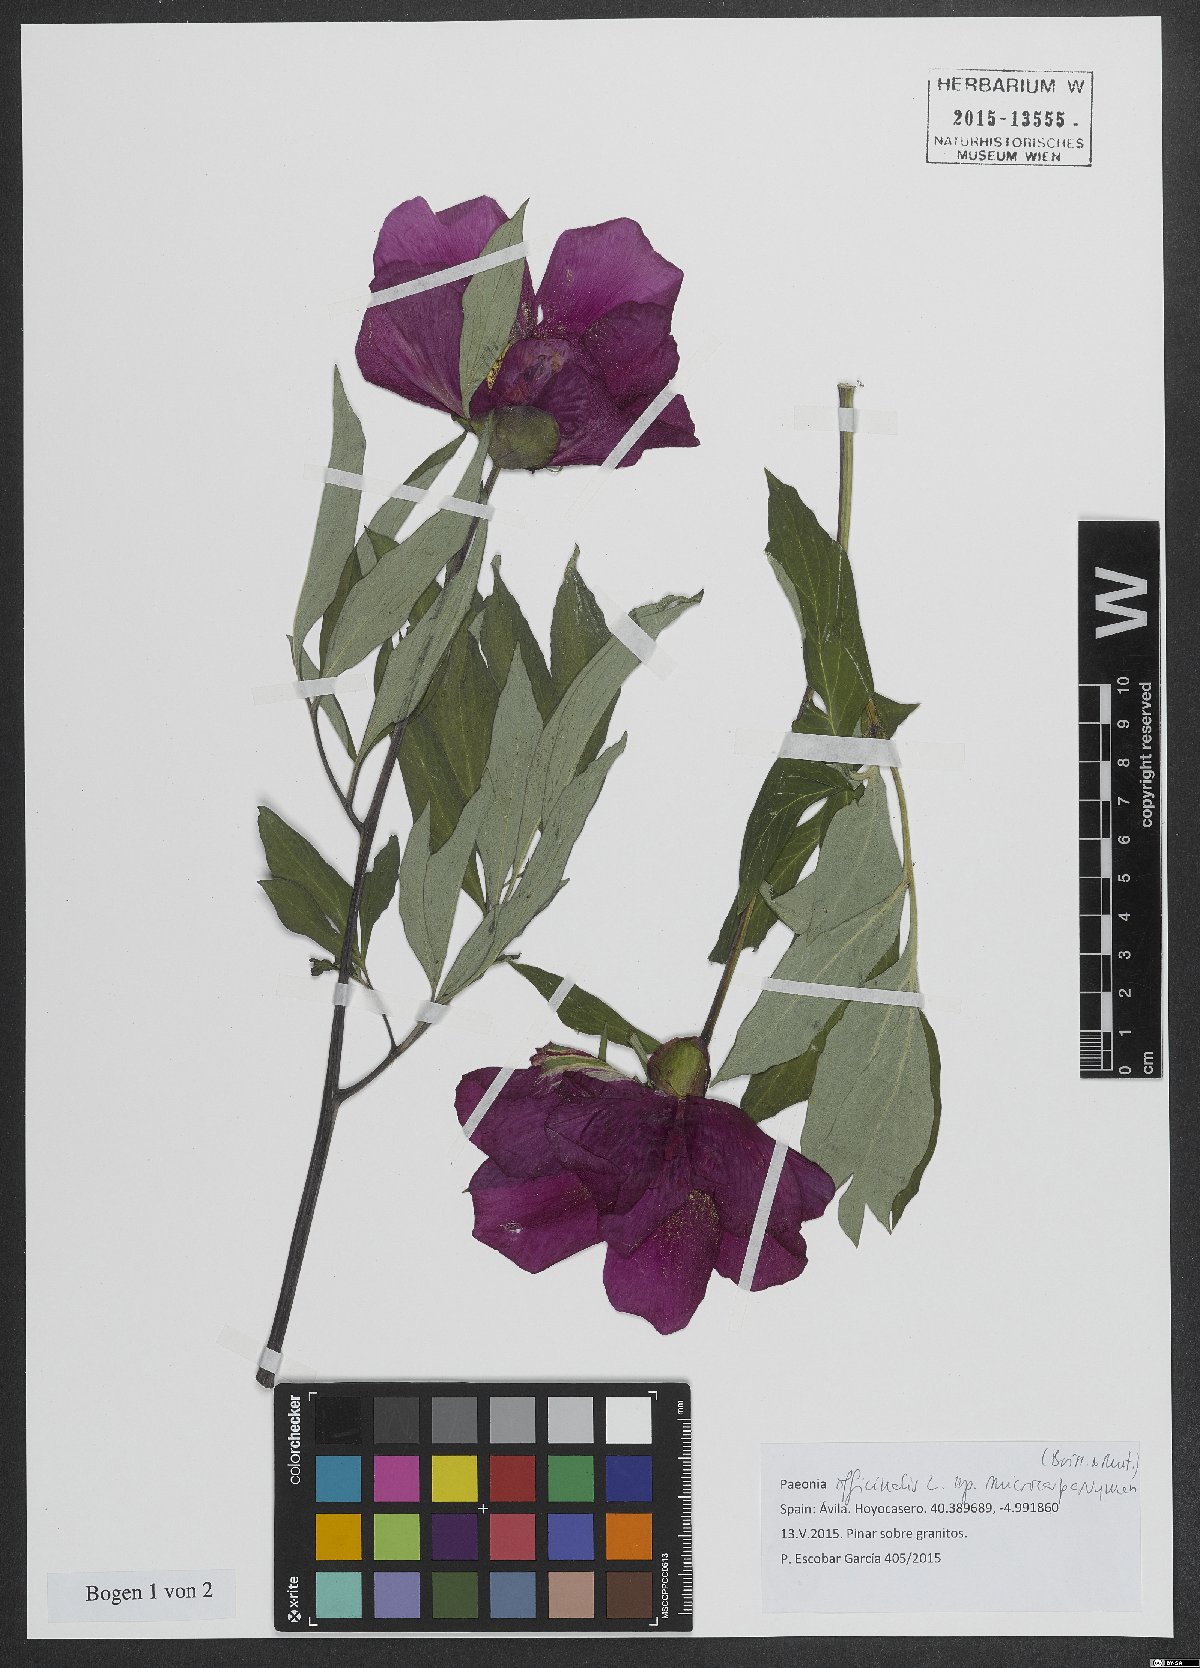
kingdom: Plantae
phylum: Tracheophyta
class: Magnoliopsida
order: Saxifragales
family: Paeoniaceae
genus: Paeonia
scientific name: Paeonia officinalis
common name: Common peony
